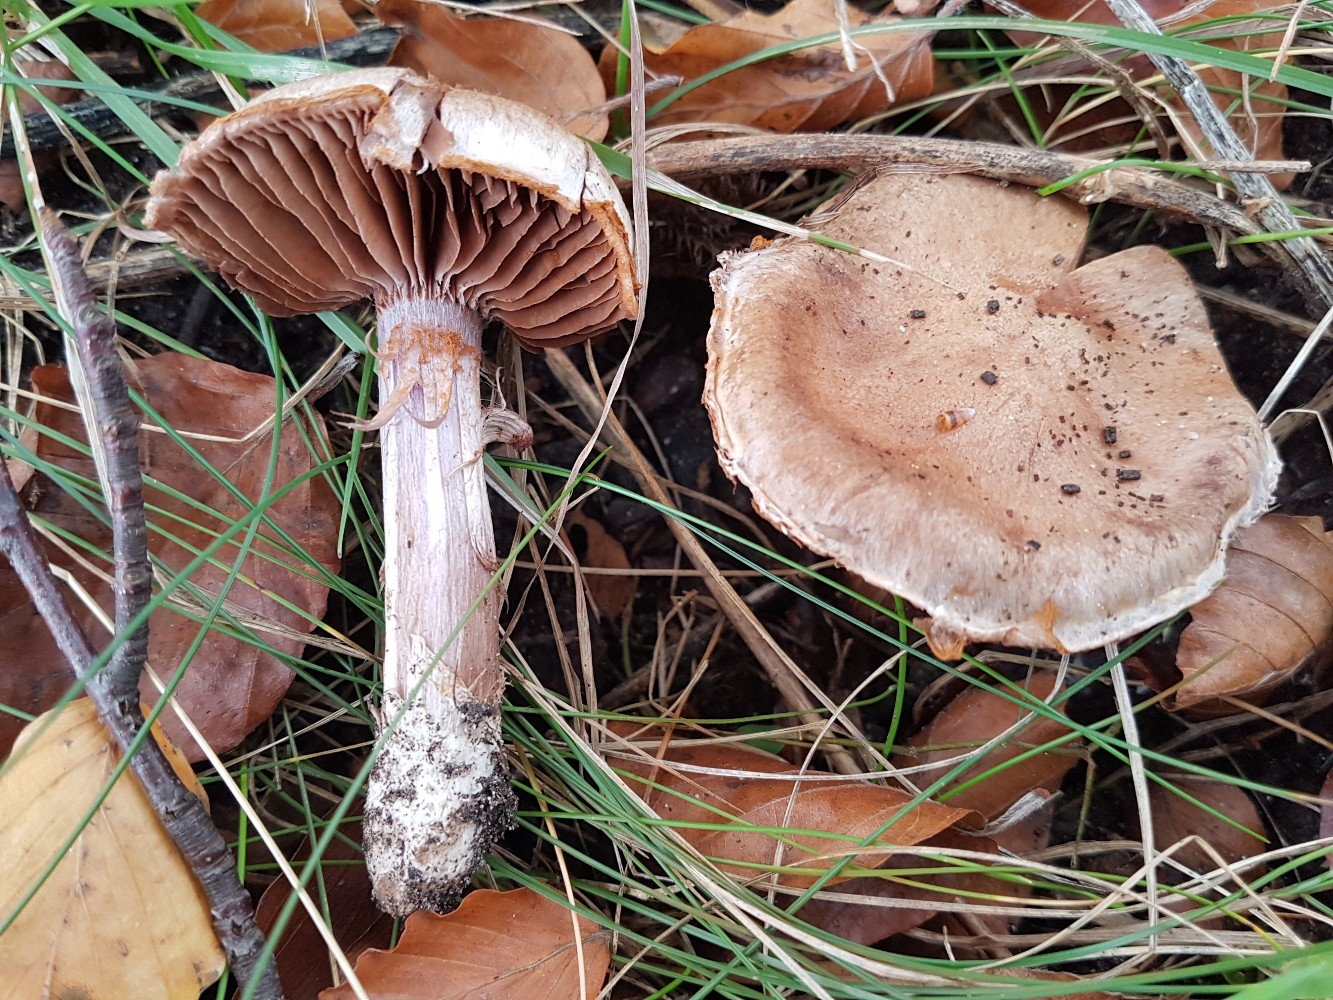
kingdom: Fungi
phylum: Basidiomycota
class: Agaricomycetes
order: Agaricales
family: Cortinariaceae
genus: Cortinarius
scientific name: Cortinarius
